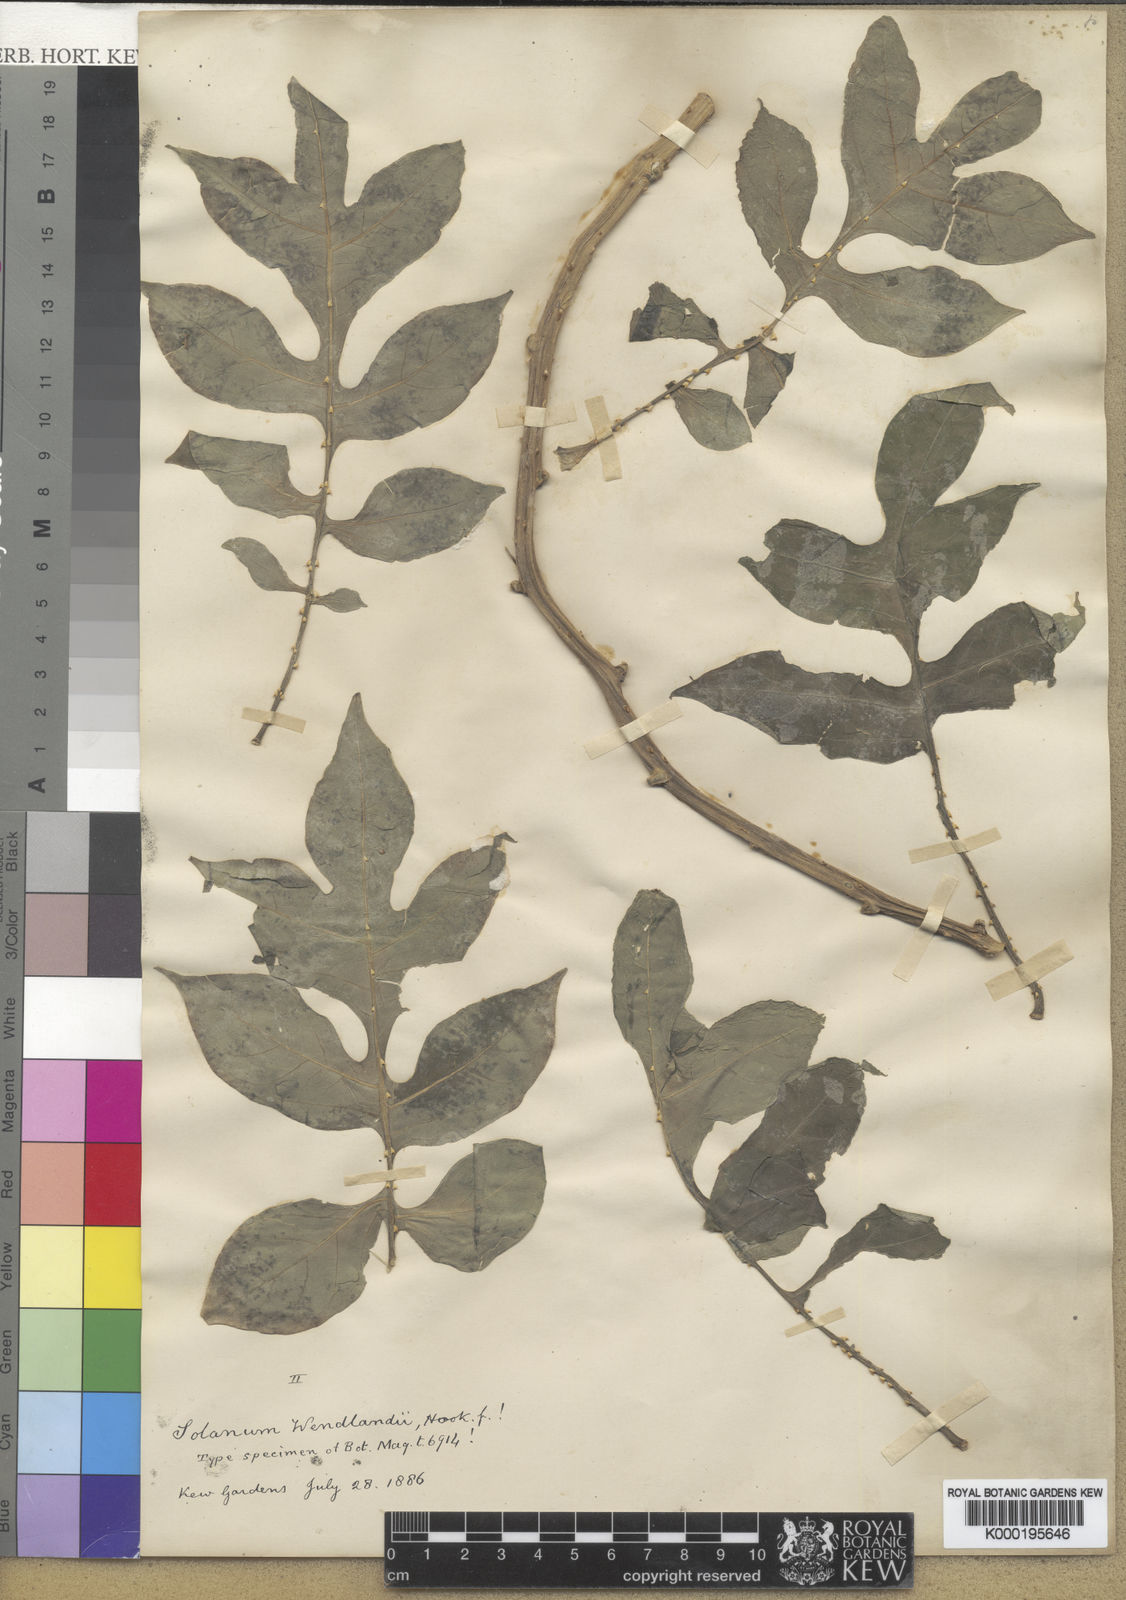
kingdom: Plantae
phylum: Tracheophyta
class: Magnoliopsida
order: Solanales
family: Solanaceae
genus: Solanum
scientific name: Solanum wendlandii
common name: Costa rican nightshade
